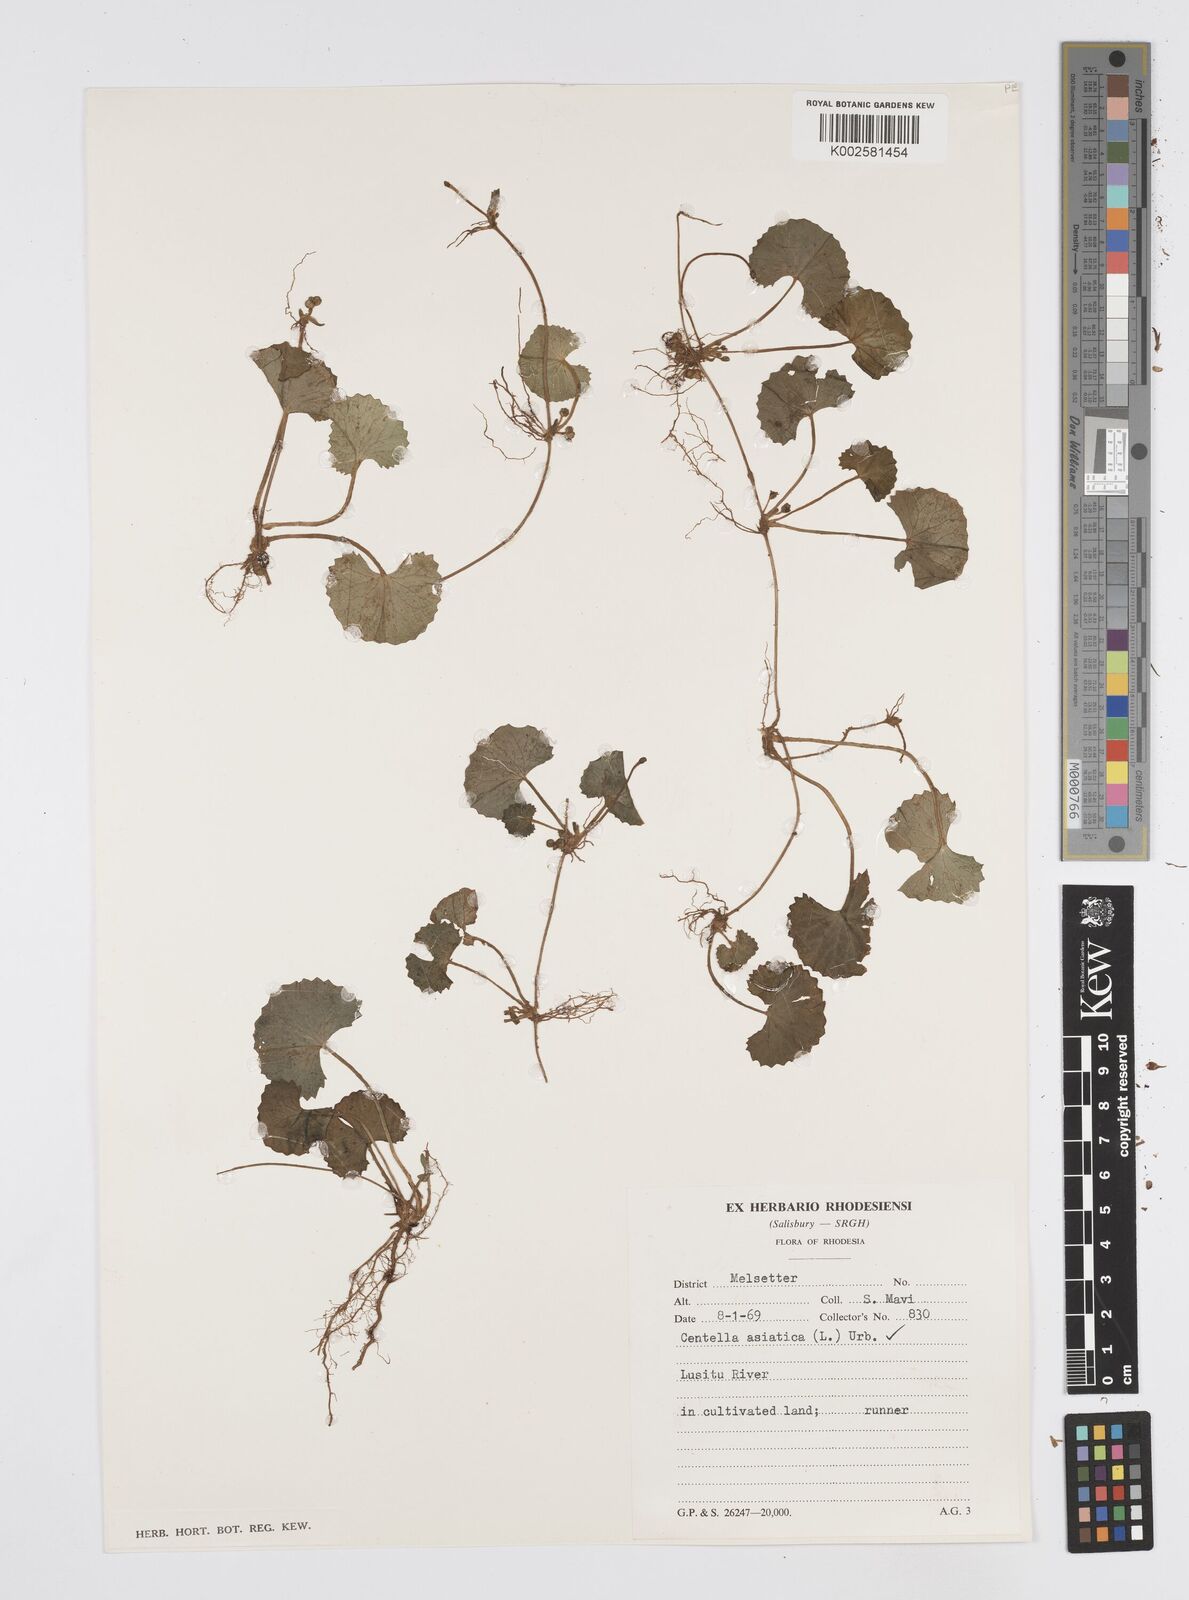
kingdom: Plantae
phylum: Tracheophyta
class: Magnoliopsida
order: Apiales
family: Apiaceae
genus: Centella
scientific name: Centella asiatica
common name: Spadeleaf
